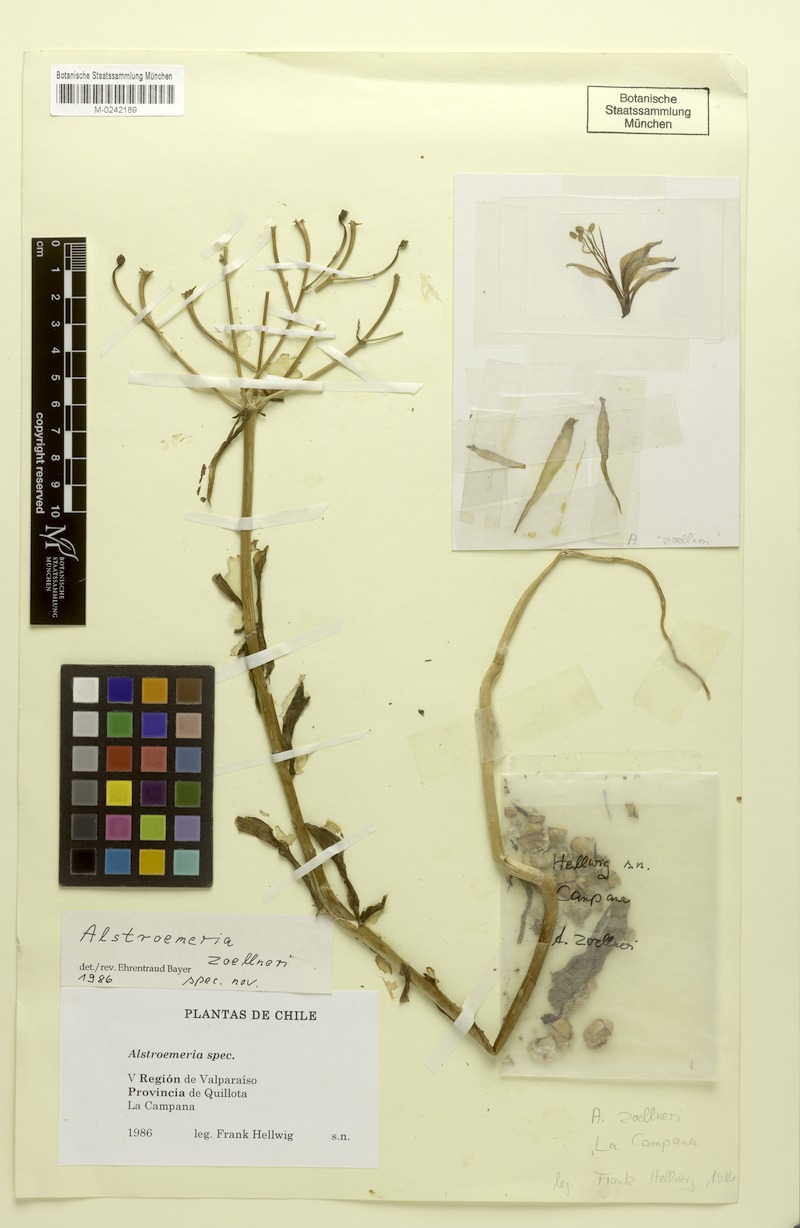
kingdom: Plantae
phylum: Tracheophyta
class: Liliopsida
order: Liliales
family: Alstroemeriaceae
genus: Alstroemeria
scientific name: Alstroemeria zoellneri
